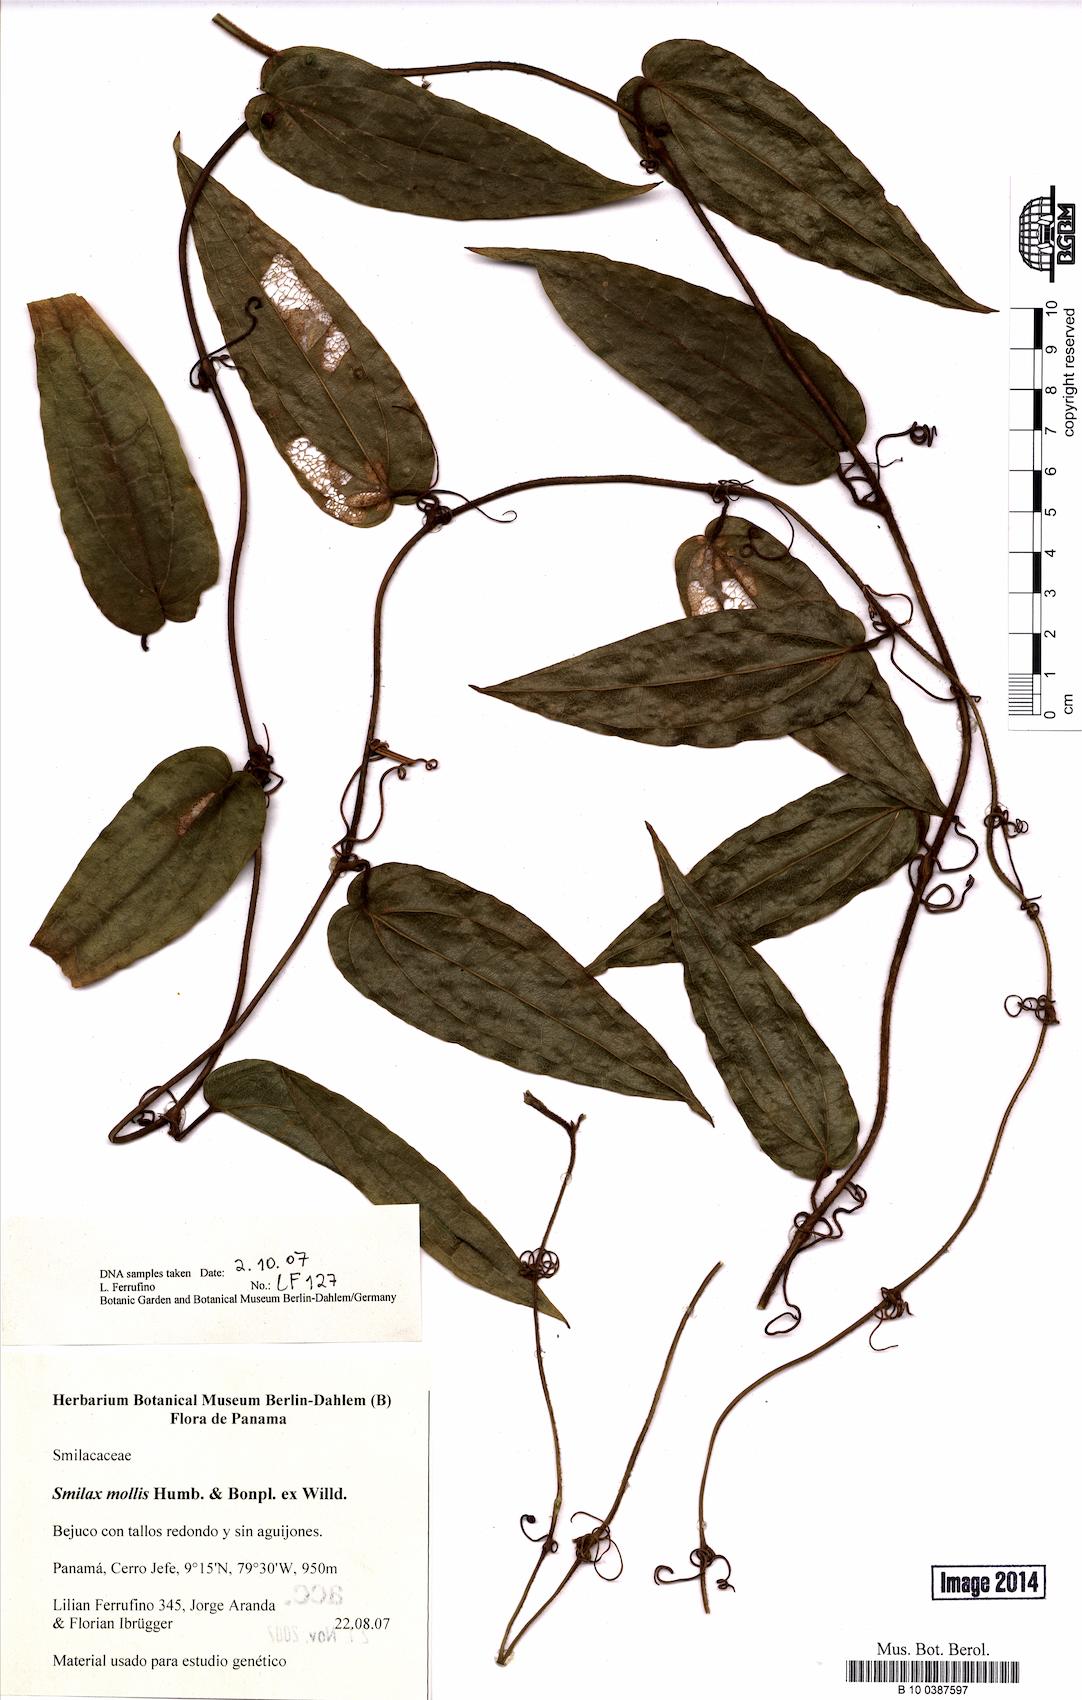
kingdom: Plantae
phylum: Tracheophyta
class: Liliopsida
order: Liliales
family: Smilacaceae
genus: Smilax
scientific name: Smilax mollis
